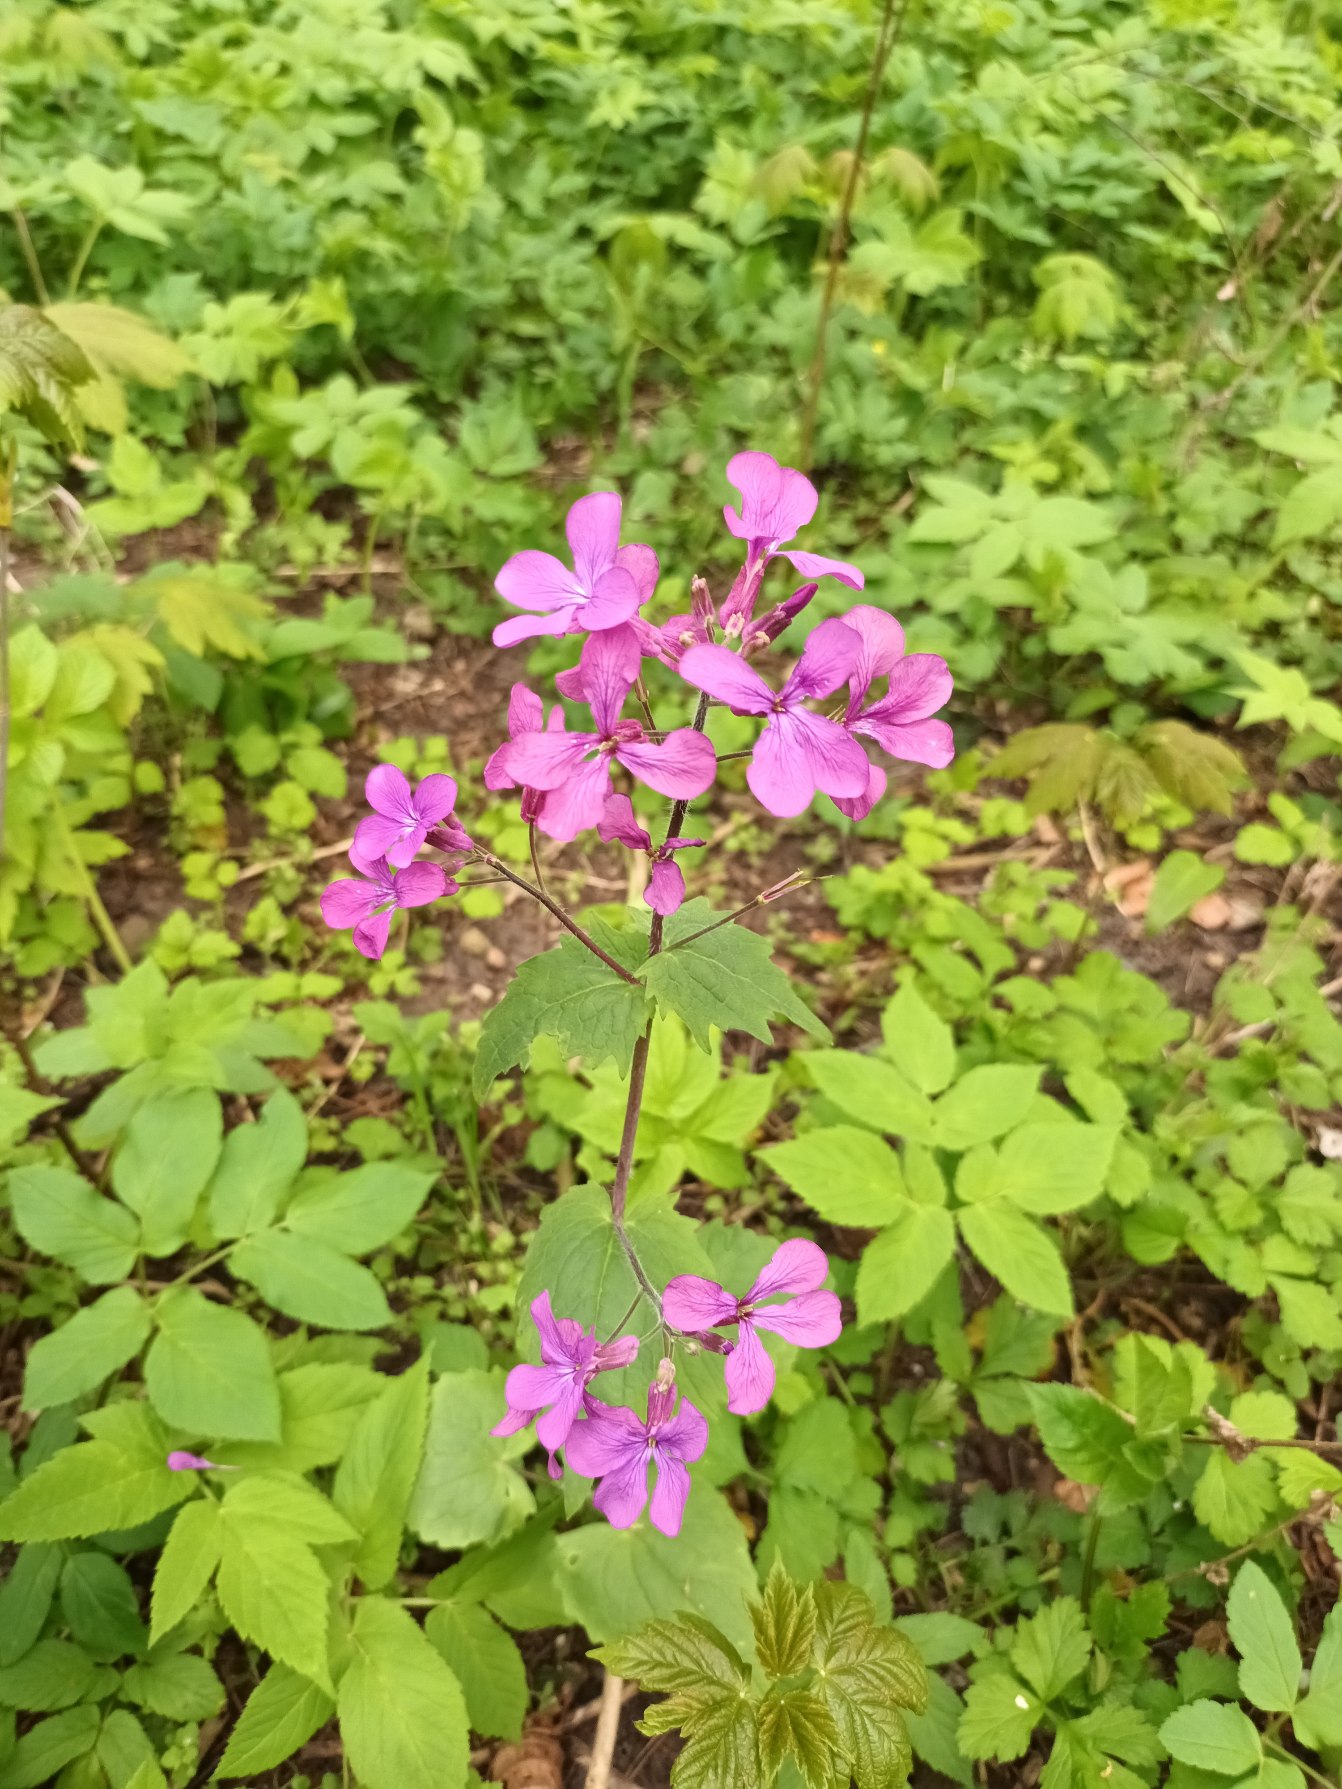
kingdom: Plantae
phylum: Tracheophyta
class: Magnoliopsida
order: Brassicales
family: Brassicaceae
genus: Lunaria
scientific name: Lunaria annua
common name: Judaspenge
